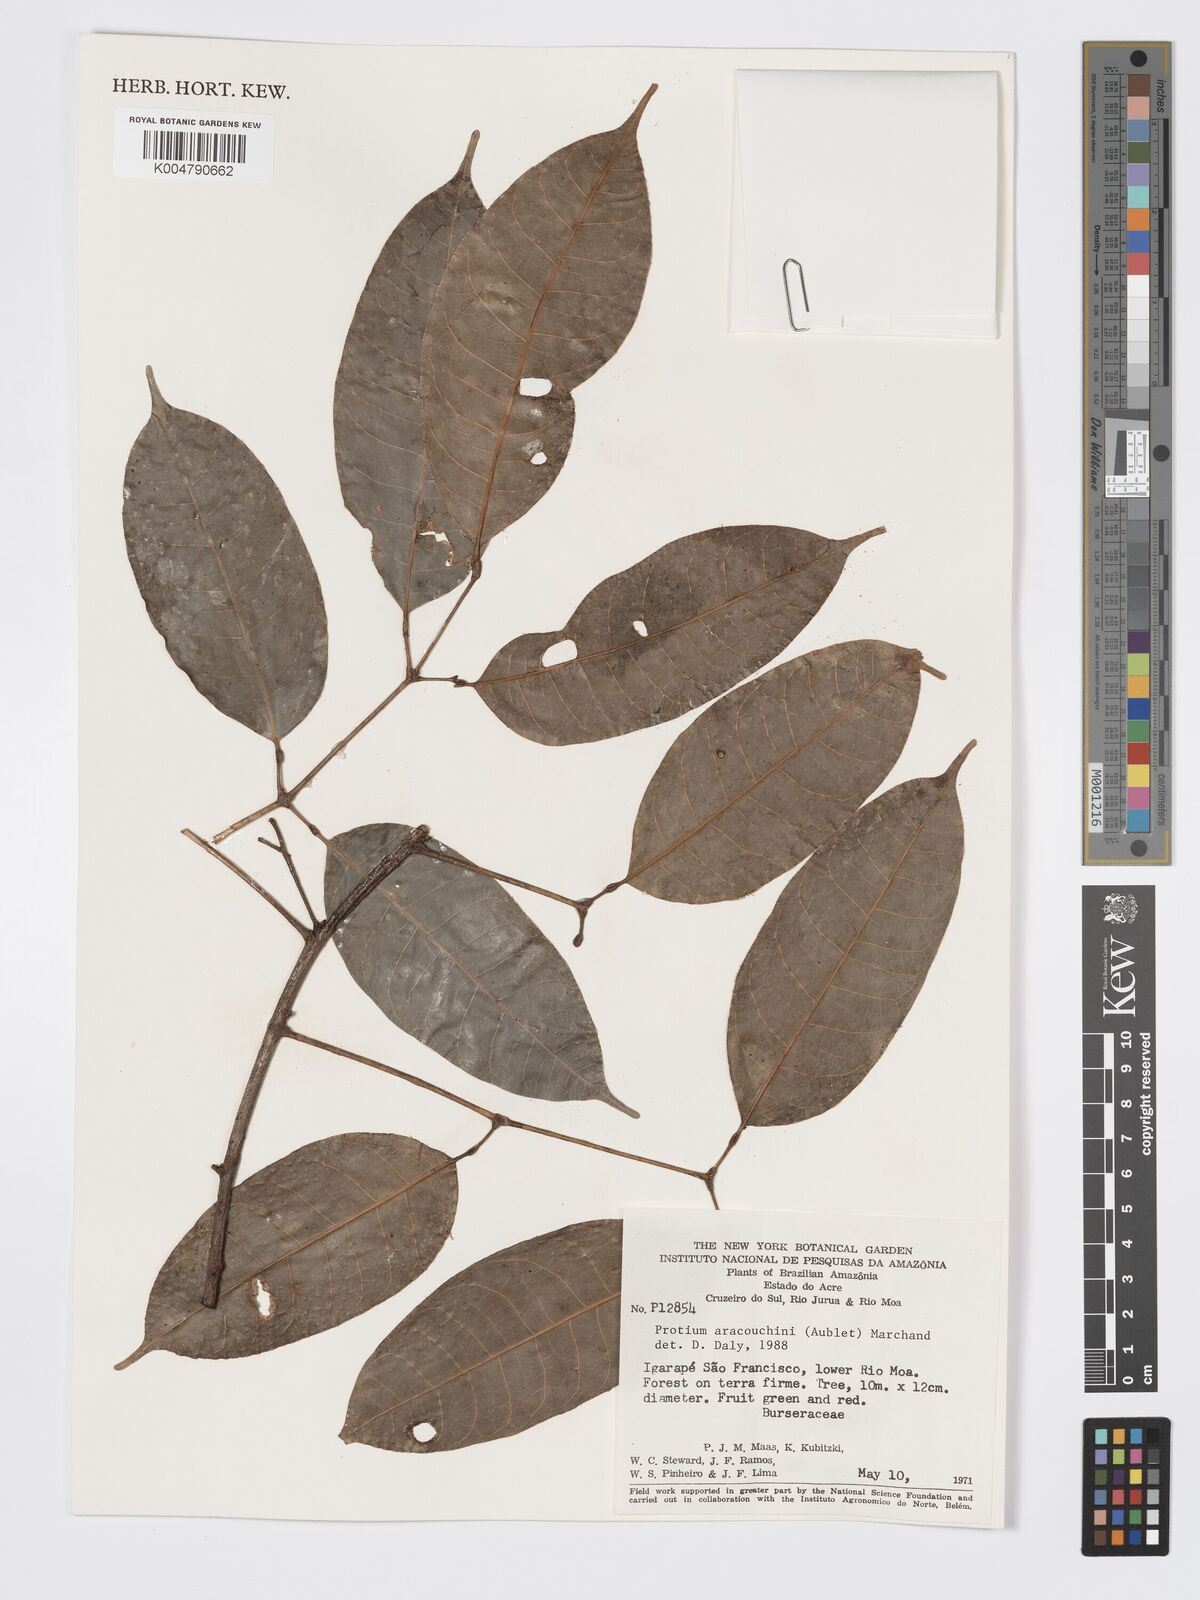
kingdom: Plantae
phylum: Tracheophyta
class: Magnoliopsida
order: Sapindales
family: Burseraceae
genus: Protium
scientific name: Protium aracouchini
